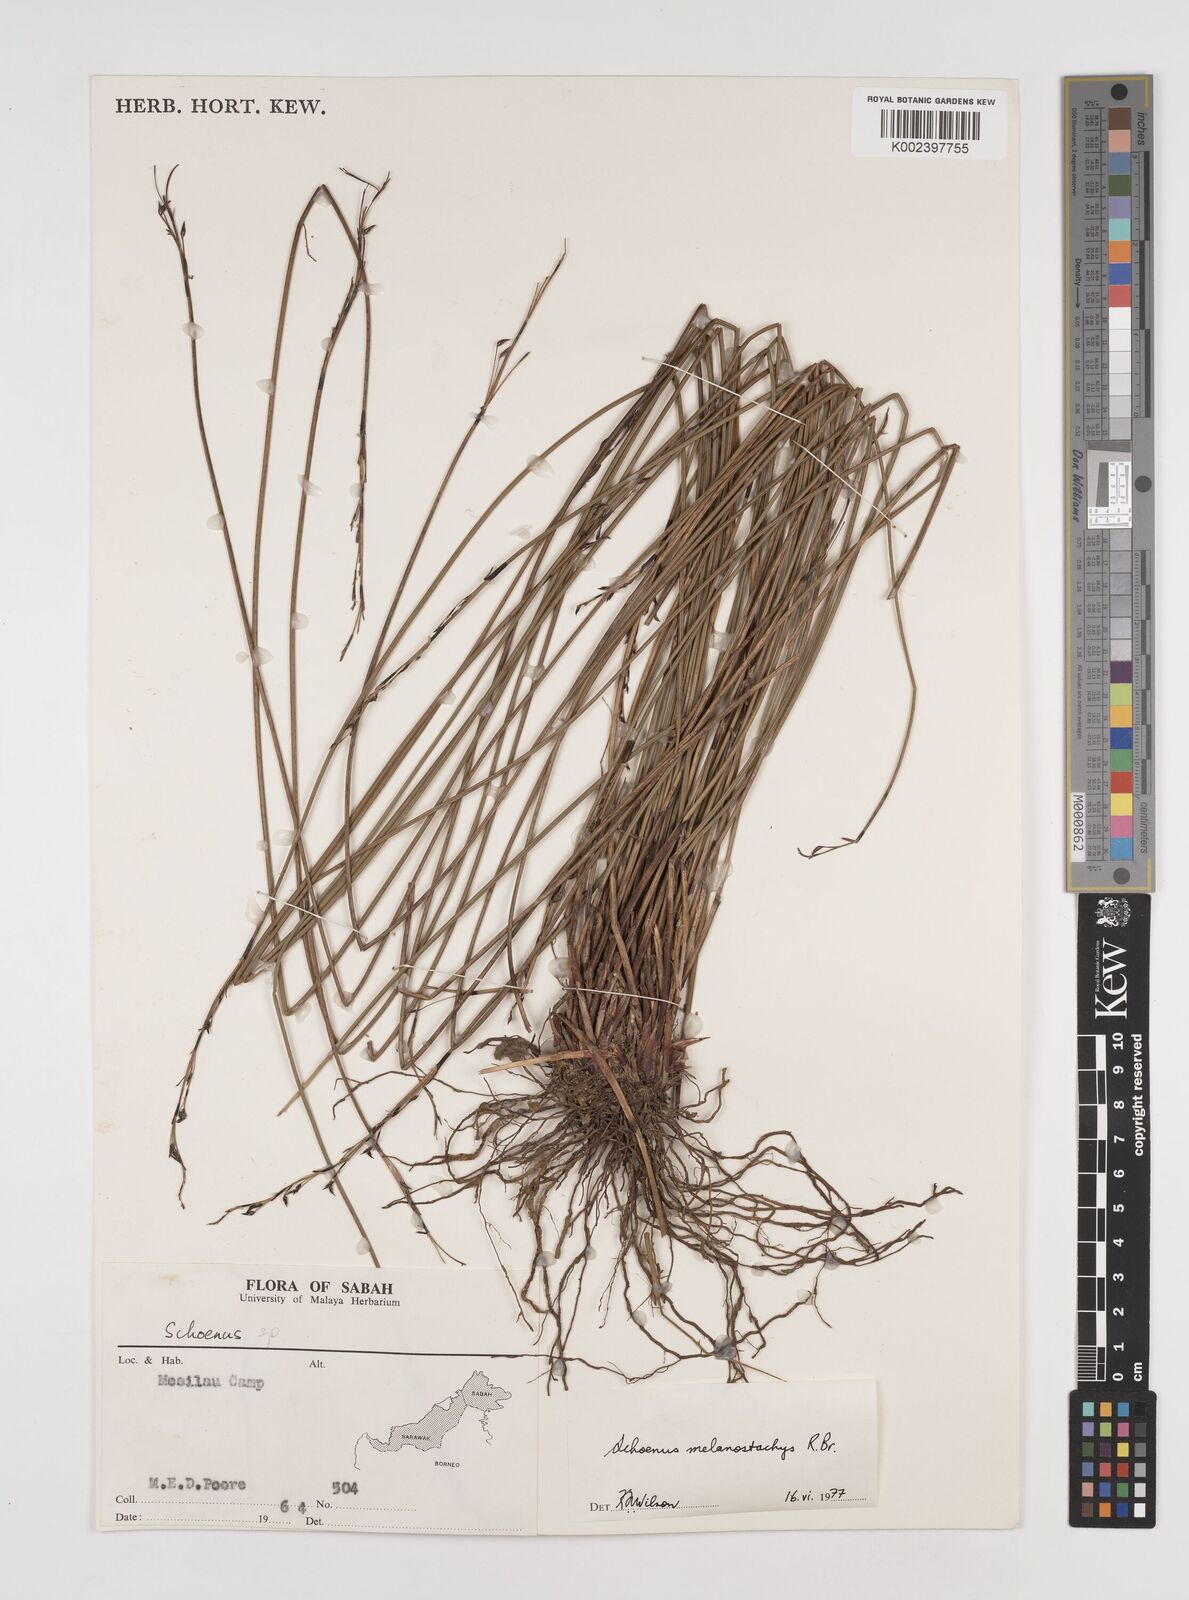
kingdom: Plantae
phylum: Tracheophyta
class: Liliopsida
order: Poales
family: Cyperaceae
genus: Schoenus
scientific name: Schoenus melanostachys
